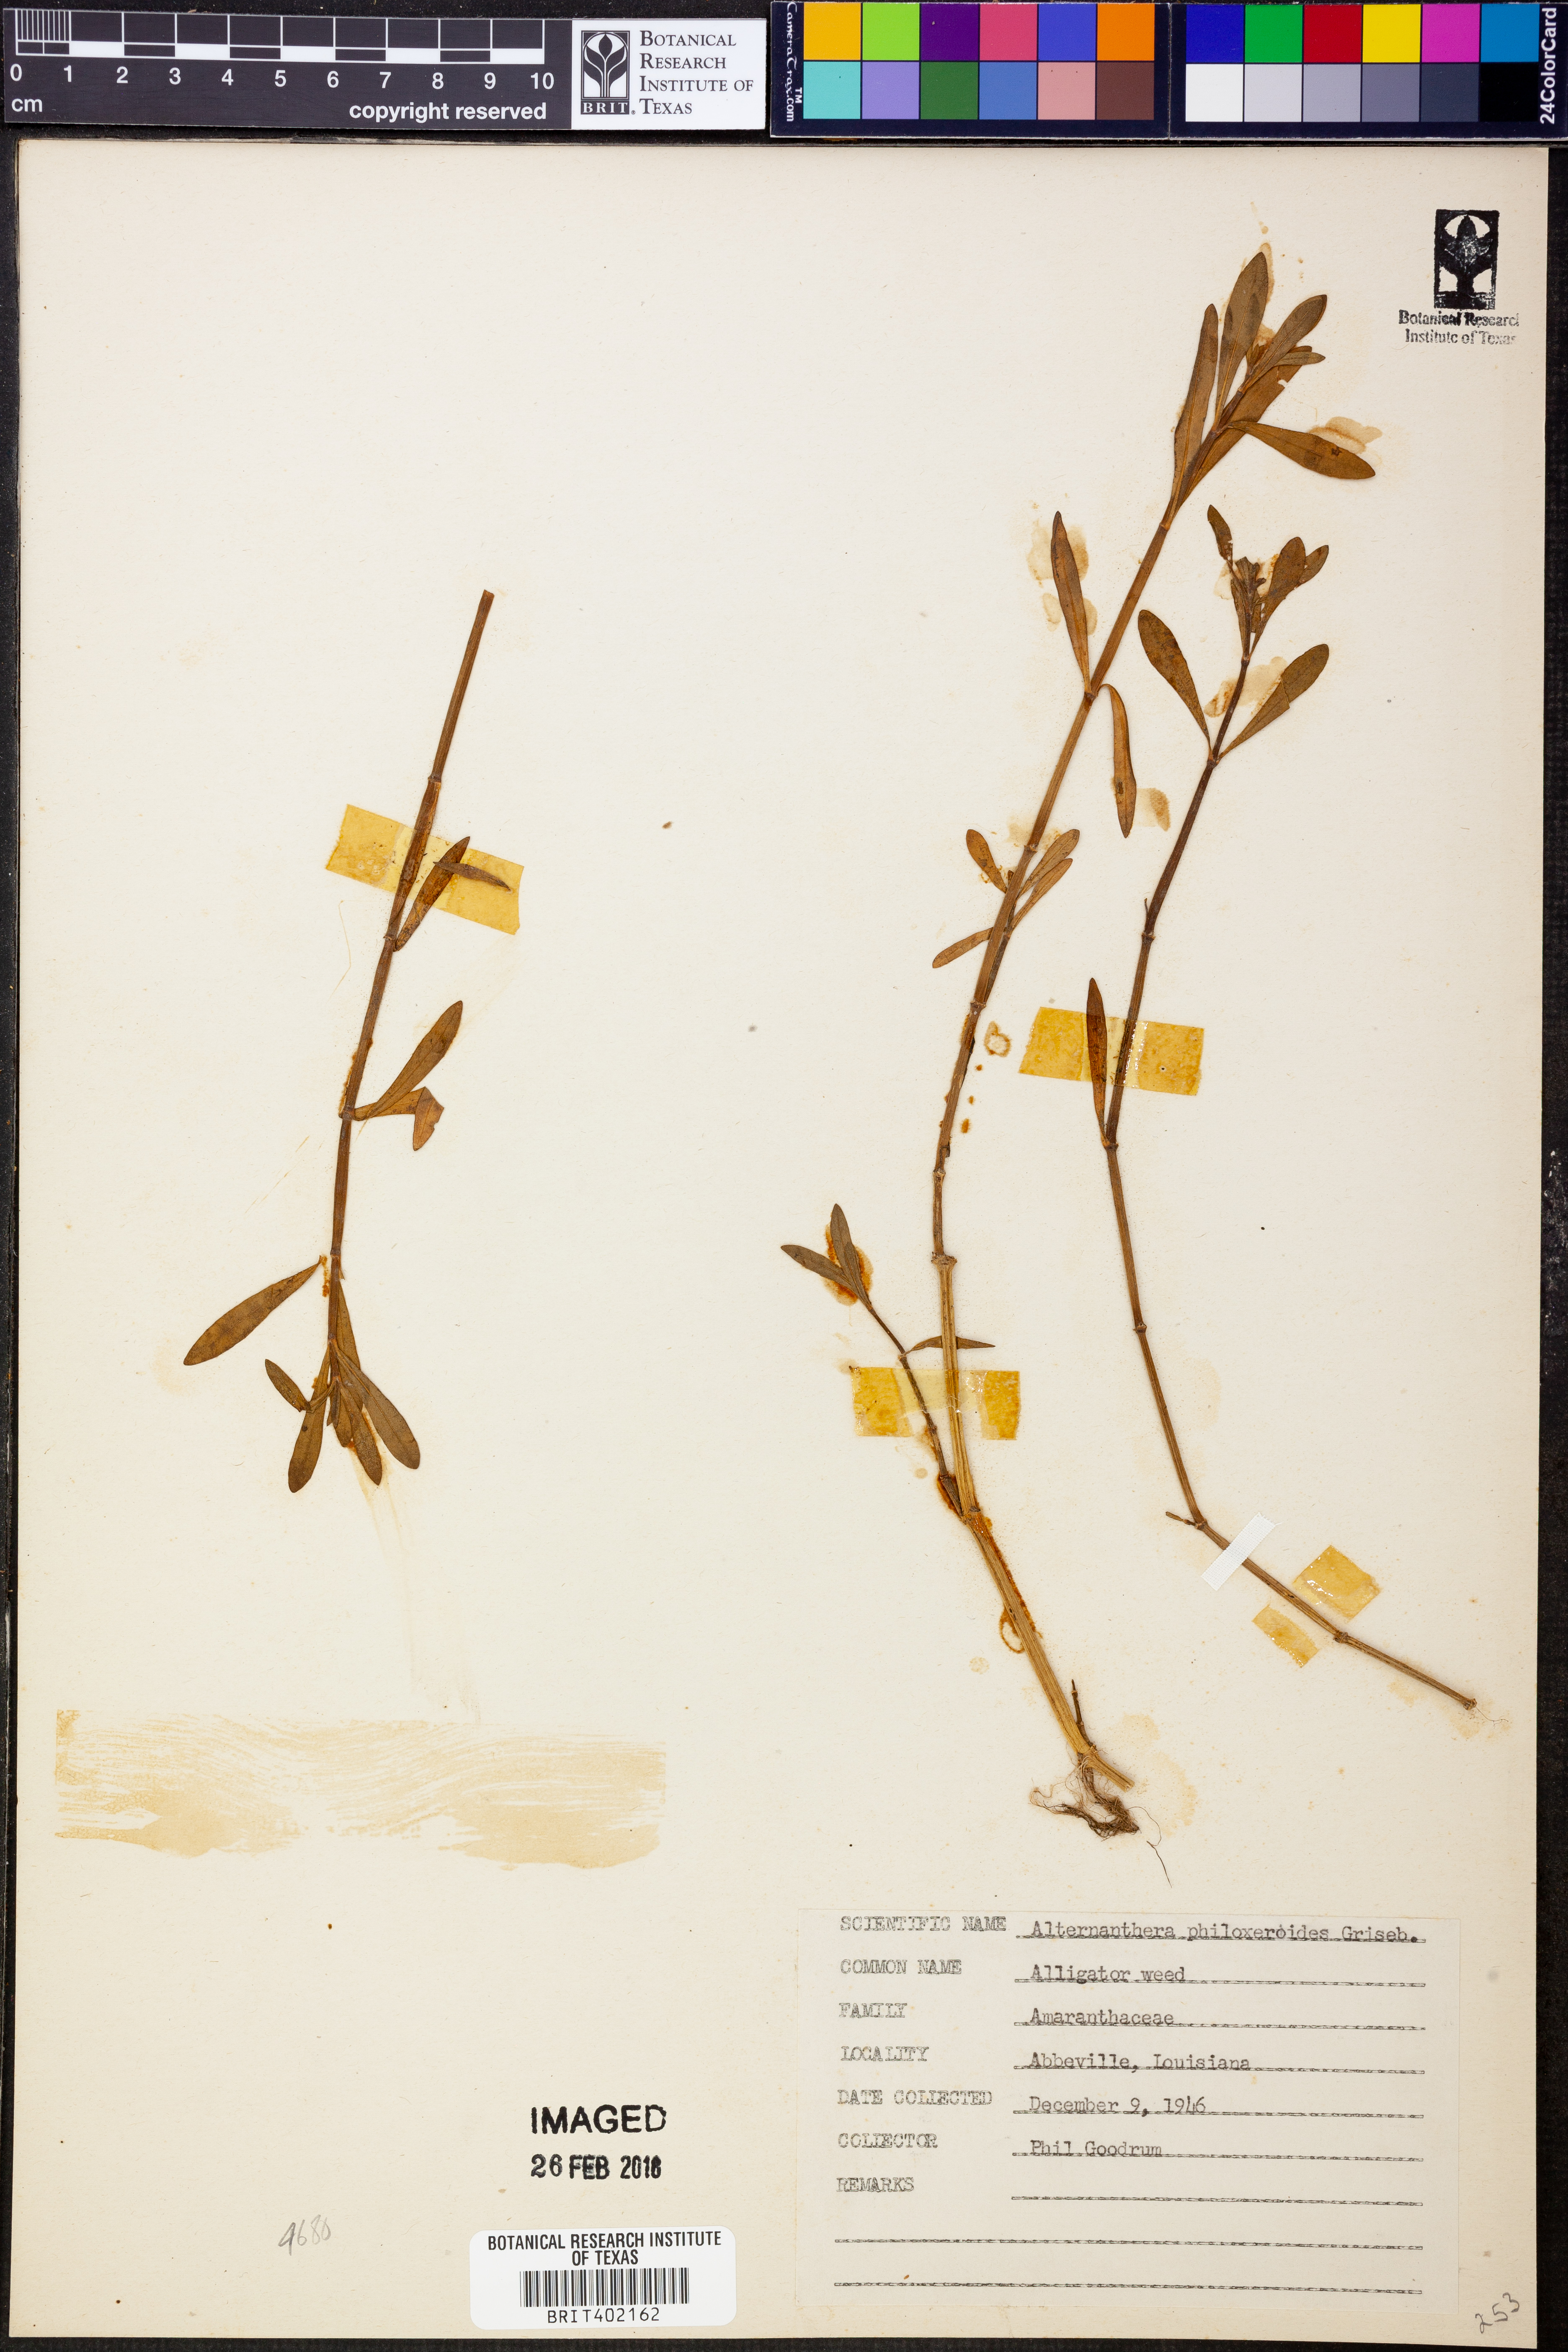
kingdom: Plantae
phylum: Tracheophyta
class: Magnoliopsida
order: Caryophyllales
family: Amaranthaceae
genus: Alternanthera
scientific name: Alternanthera philoxeroides
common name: Alligatorweed
